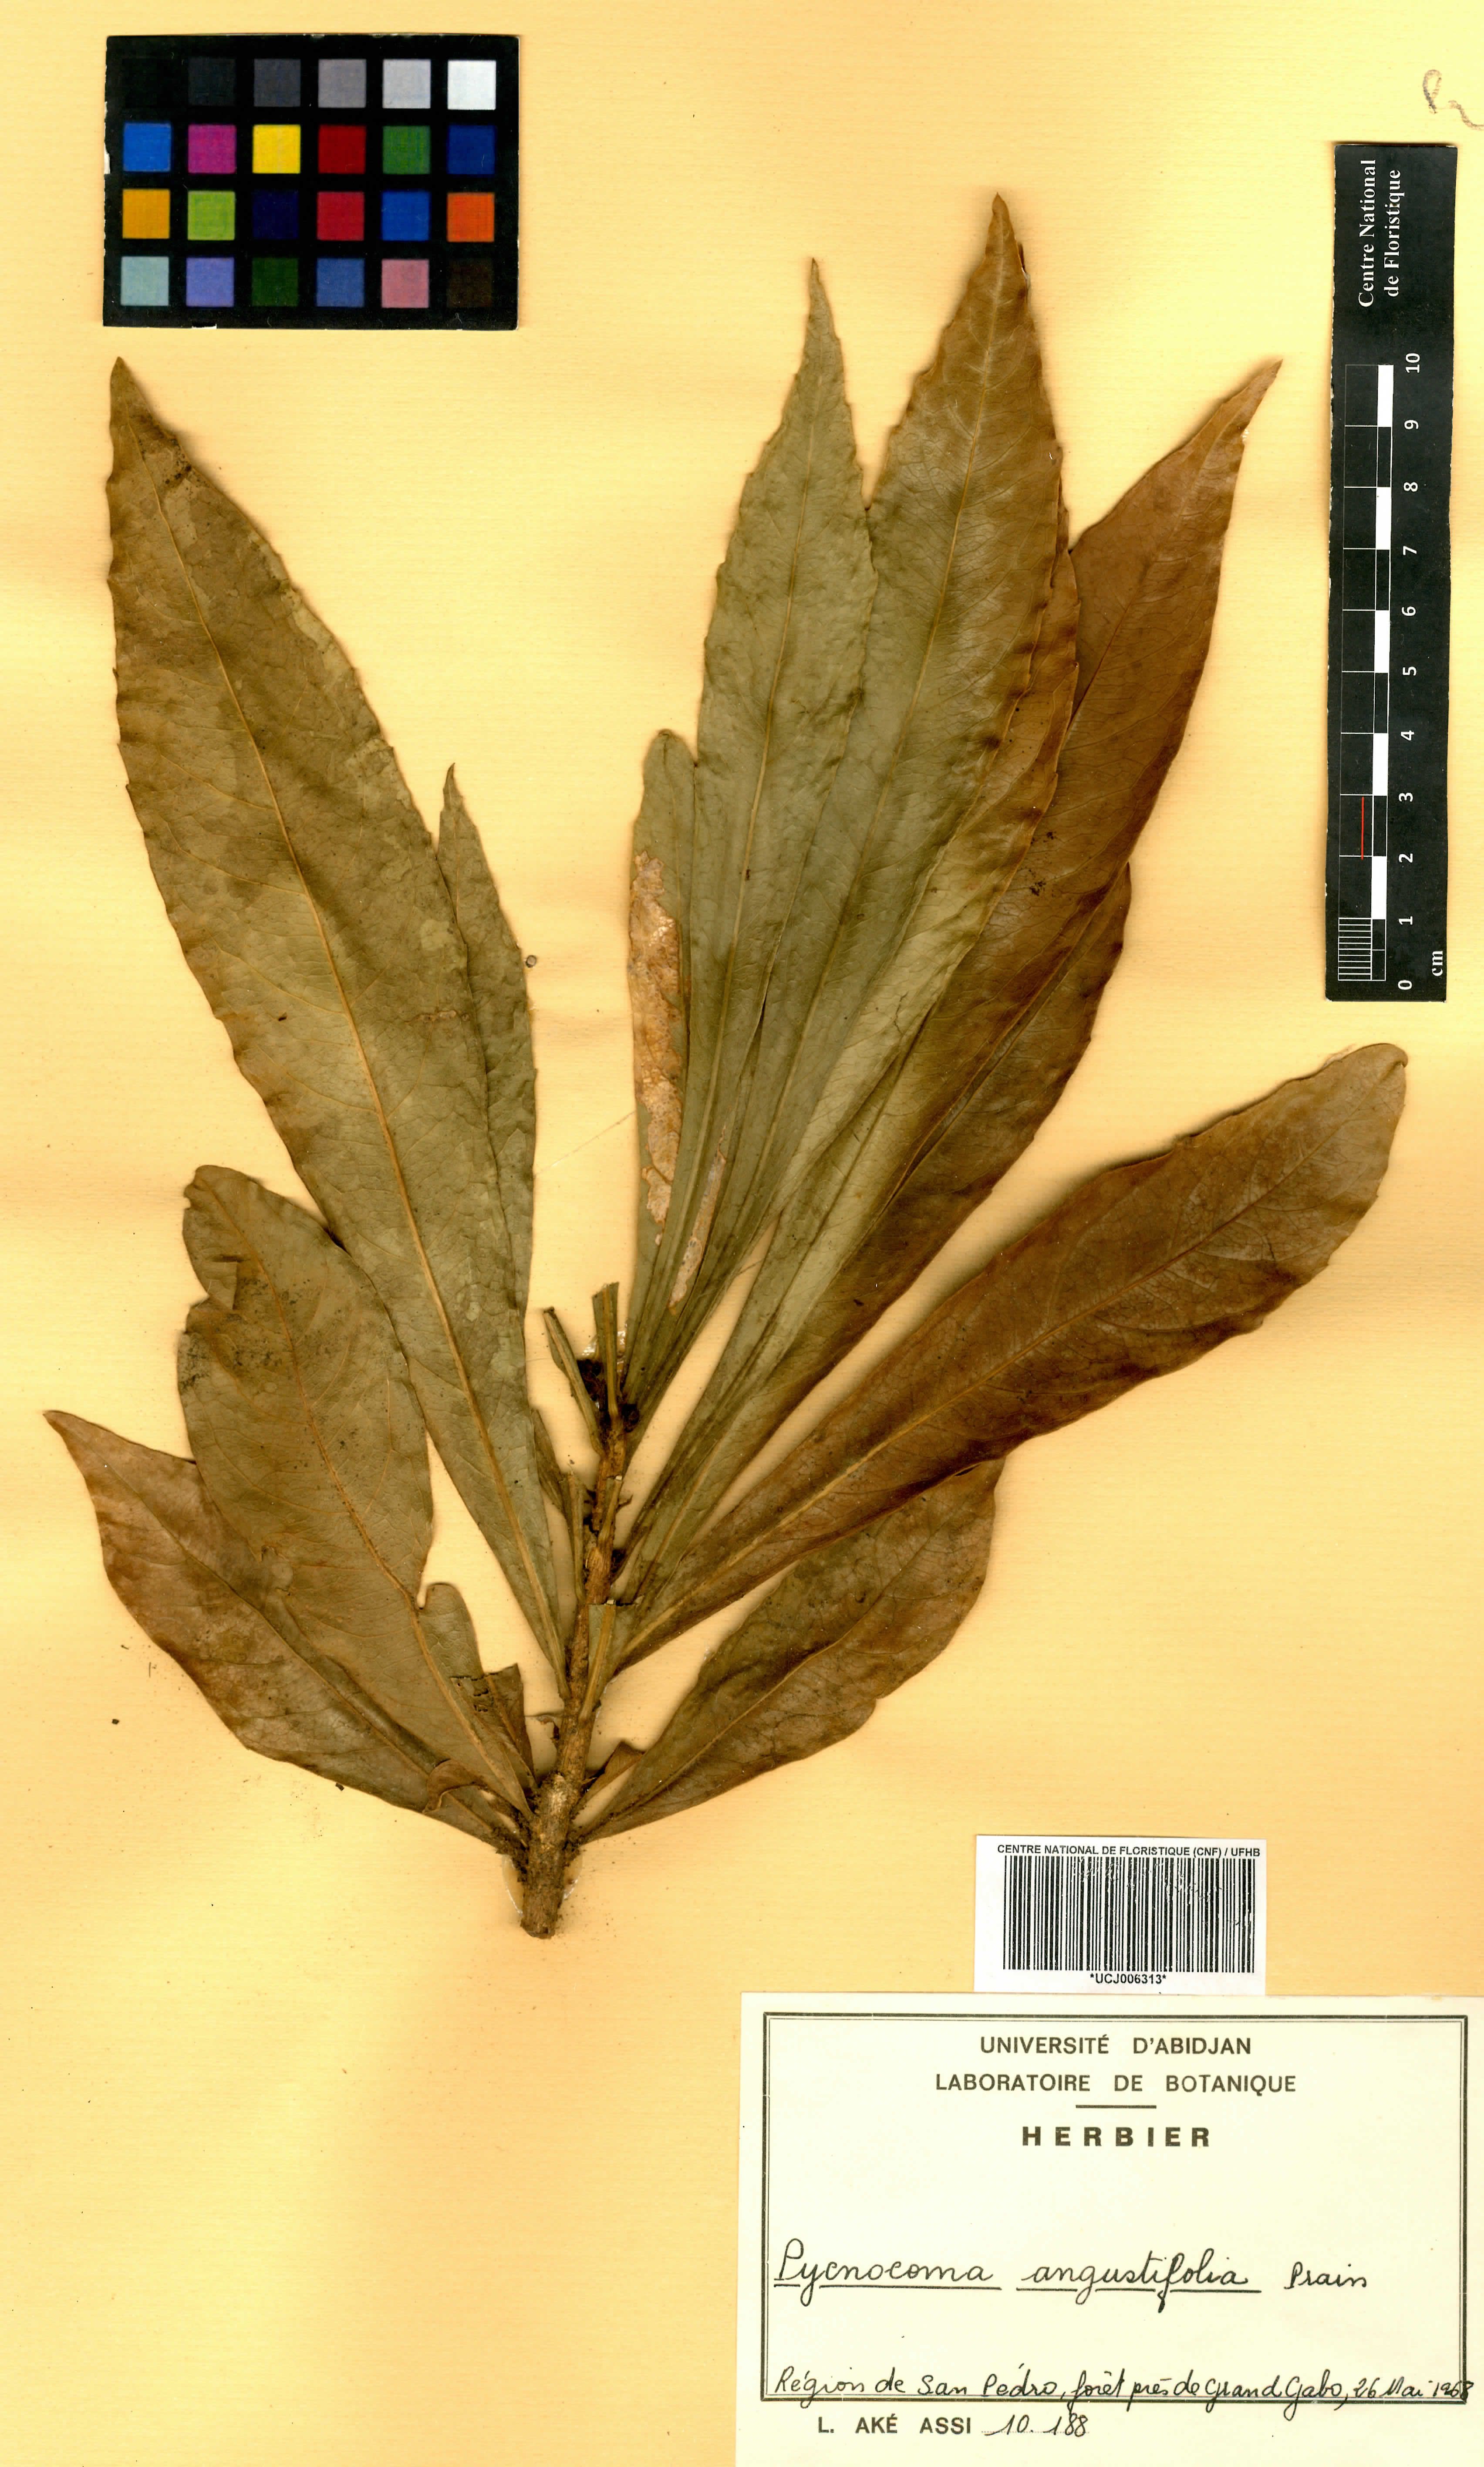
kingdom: Plantae
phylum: Tracheophyta
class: Magnoliopsida
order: Malpighiales
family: Euphorbiaceae
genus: Pycnocoma
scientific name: Pycnocoma angustifolia
